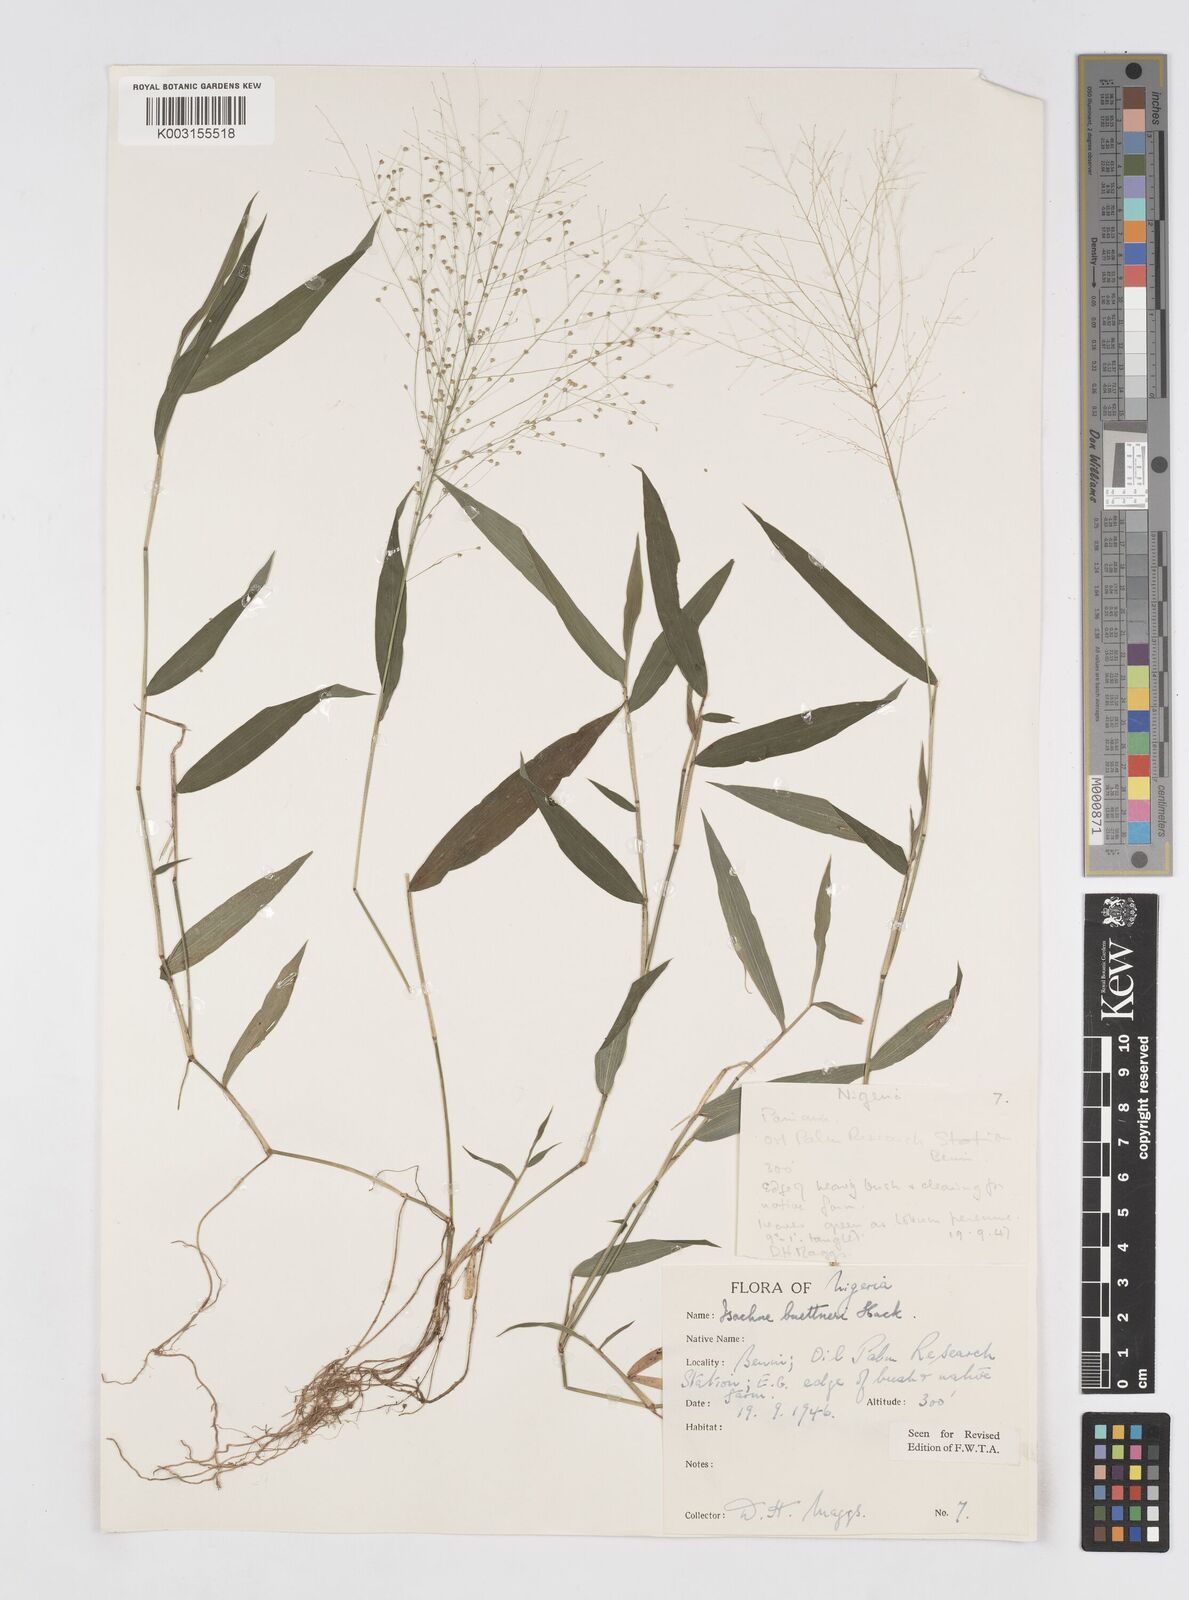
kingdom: Plantae
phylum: Tracheophyta
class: Liliopsida
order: Poales
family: Poaceae
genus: Isachne
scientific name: Isachne albens
